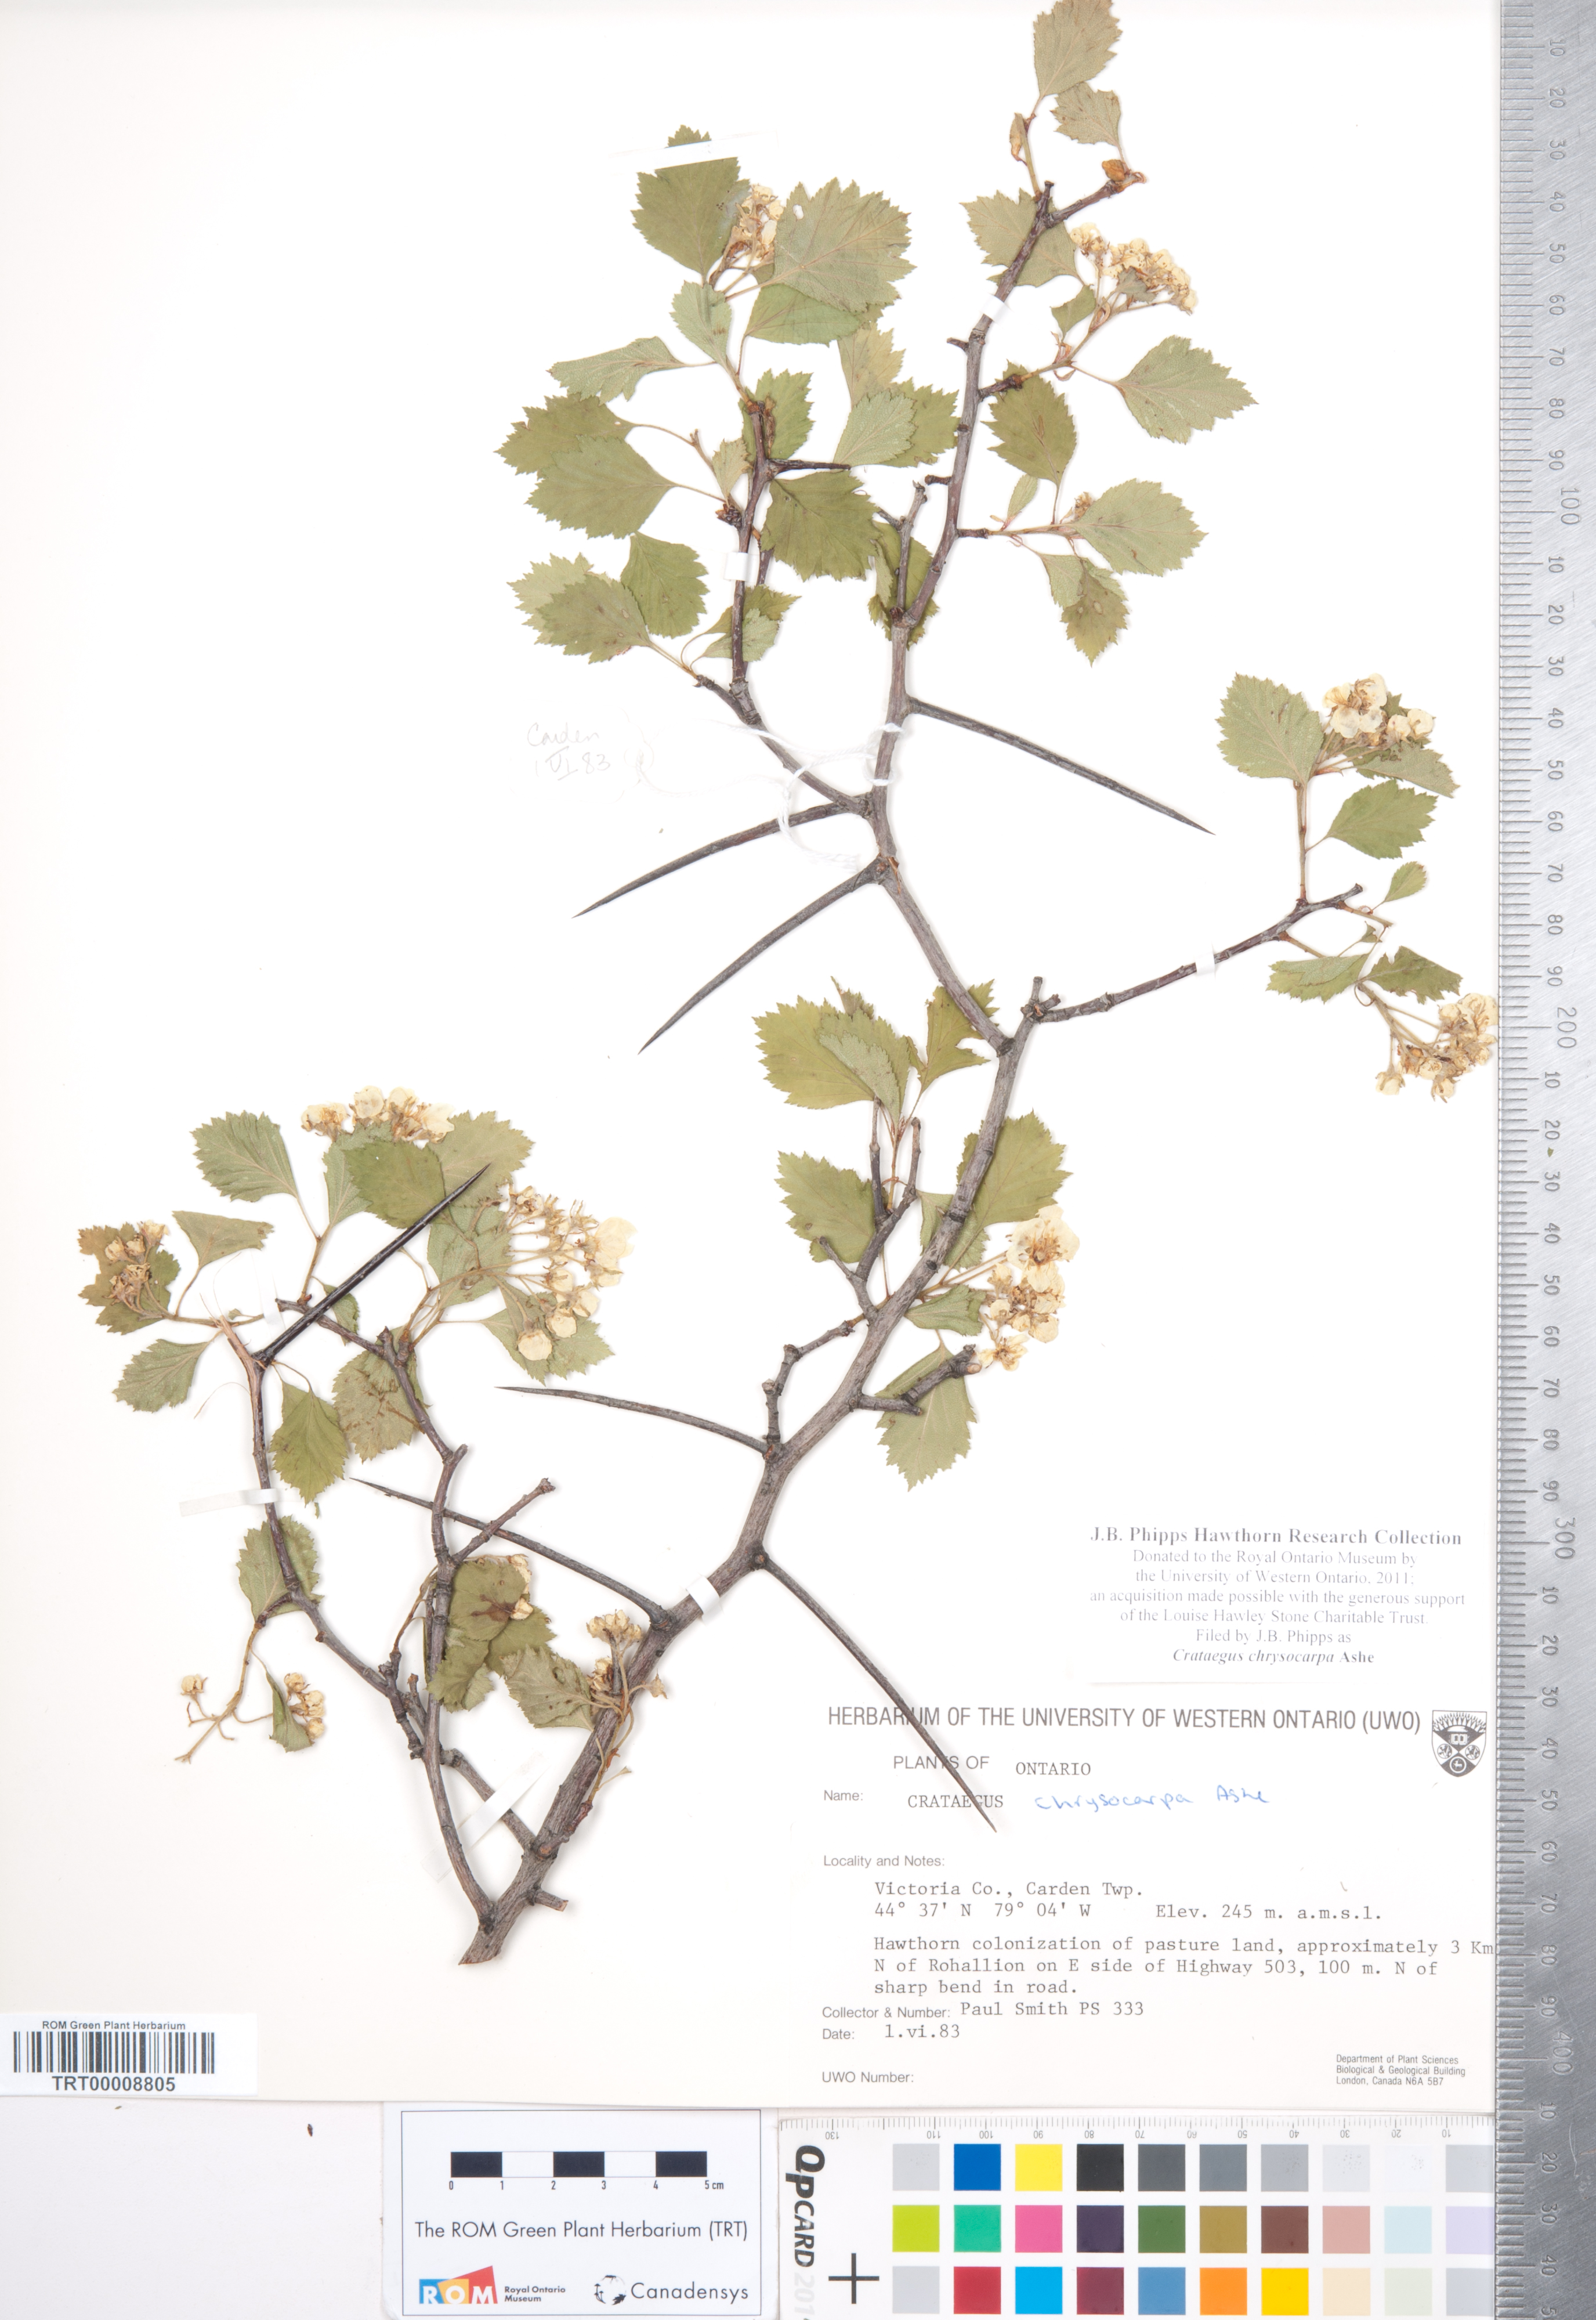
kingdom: Plantae
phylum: Tracheophyta
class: Magnoliopsida
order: Rosales
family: Rosaceae
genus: Crataegus
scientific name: Crataegus chrysocarpa
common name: Fire-berry hawthorn
